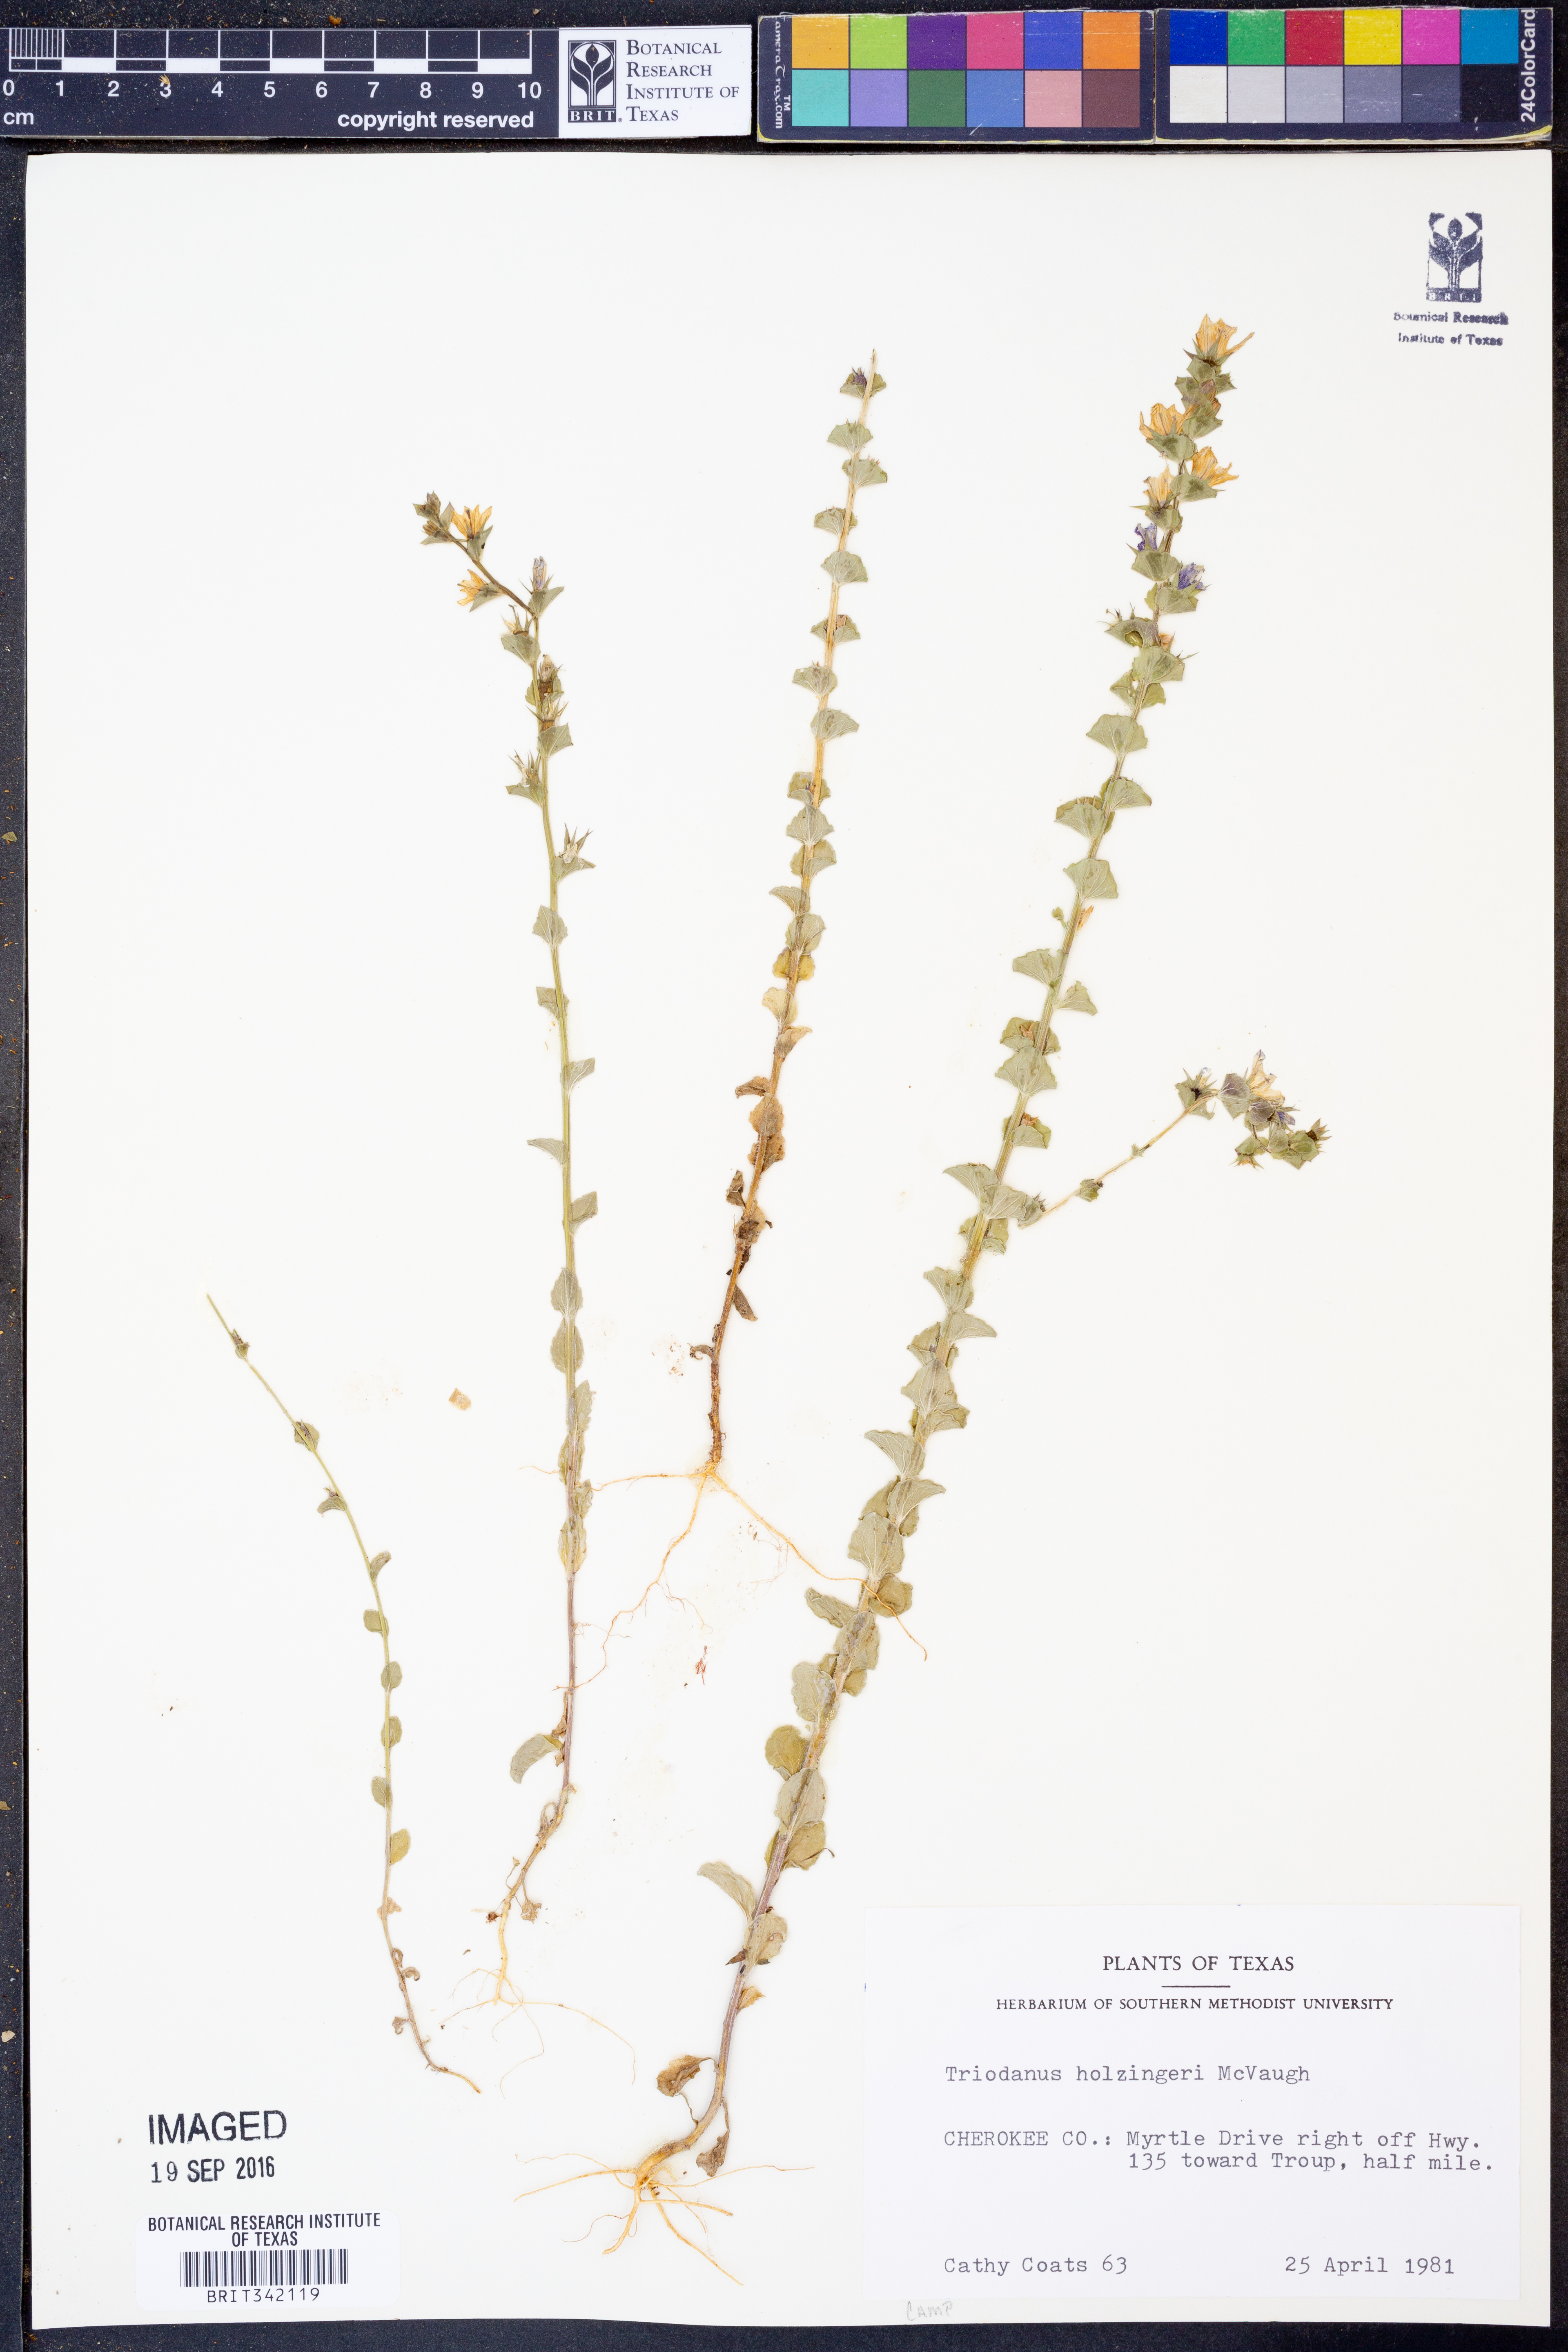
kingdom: Plantae
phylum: Tracheophyta
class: Magnoliopsida
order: Asterales
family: Campanulaceae
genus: Triodanis
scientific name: Triodanis holzingeri
